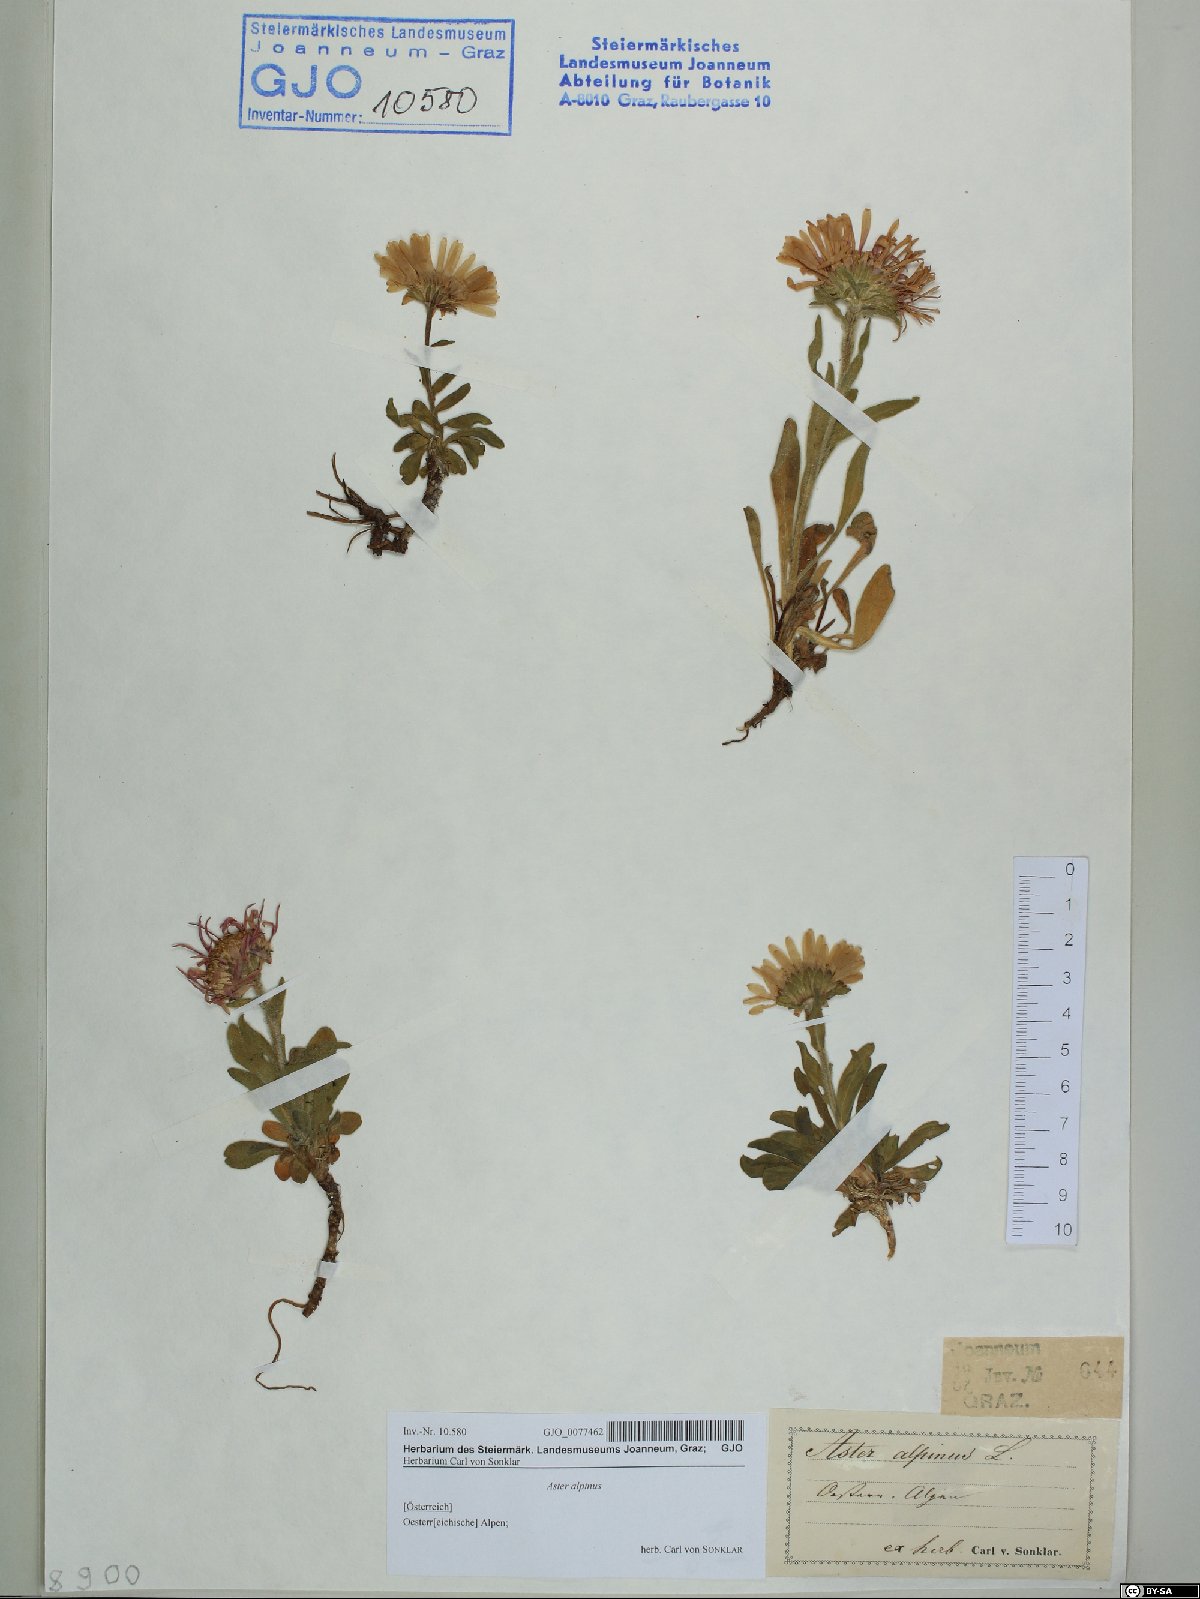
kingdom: Plantae
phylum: Tracheophyta
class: Magnoliopsida
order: Asterales
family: Asteraceae
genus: Aster
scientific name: Aster alpinus
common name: Alpine aster
